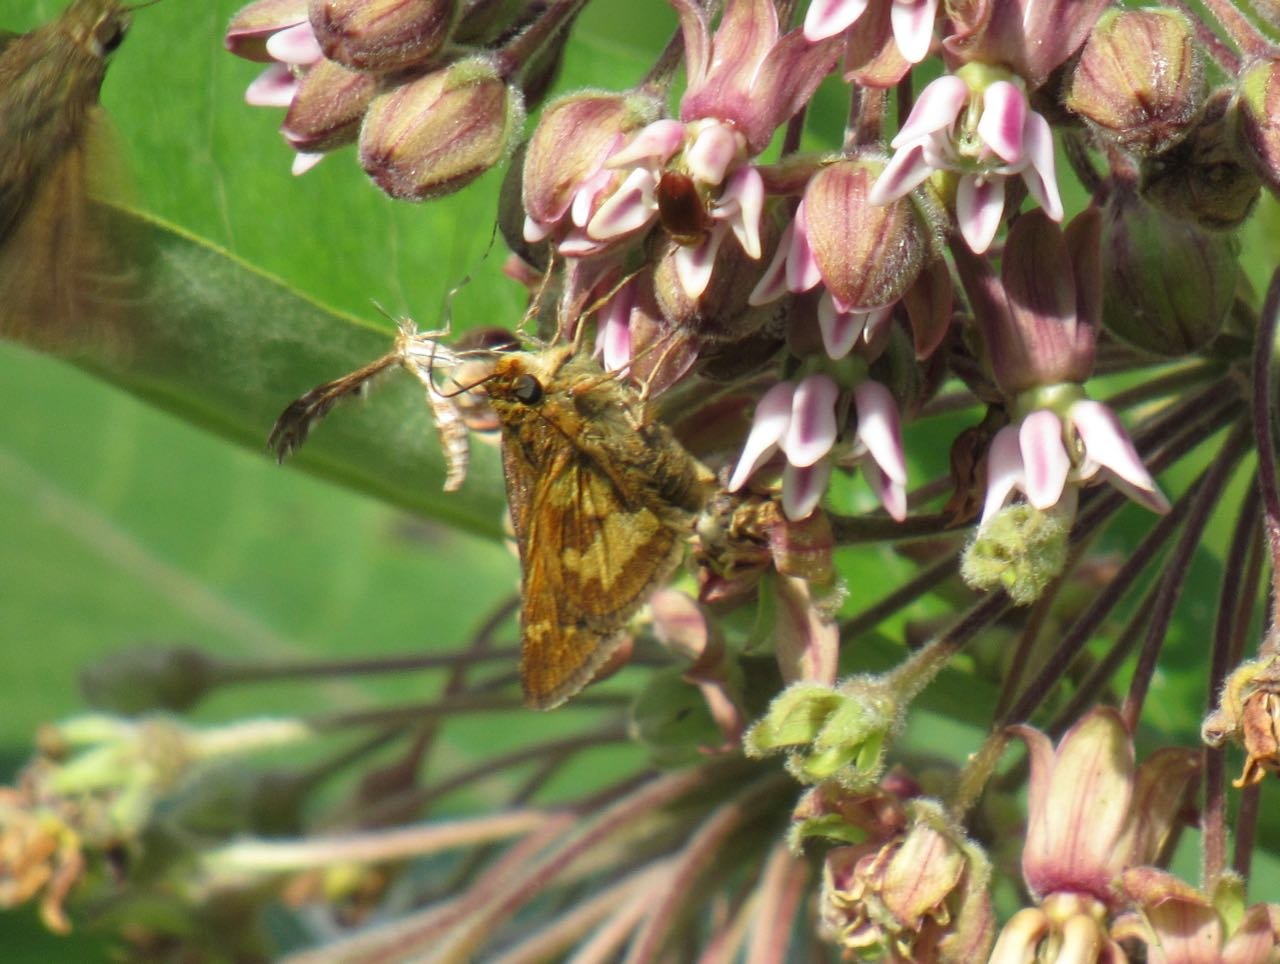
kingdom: Animalia
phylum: Arthropoda
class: Insecta
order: Lepidoptera
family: Hesperiidae
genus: Polites
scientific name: Polites coras
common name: Peck's Skipper
